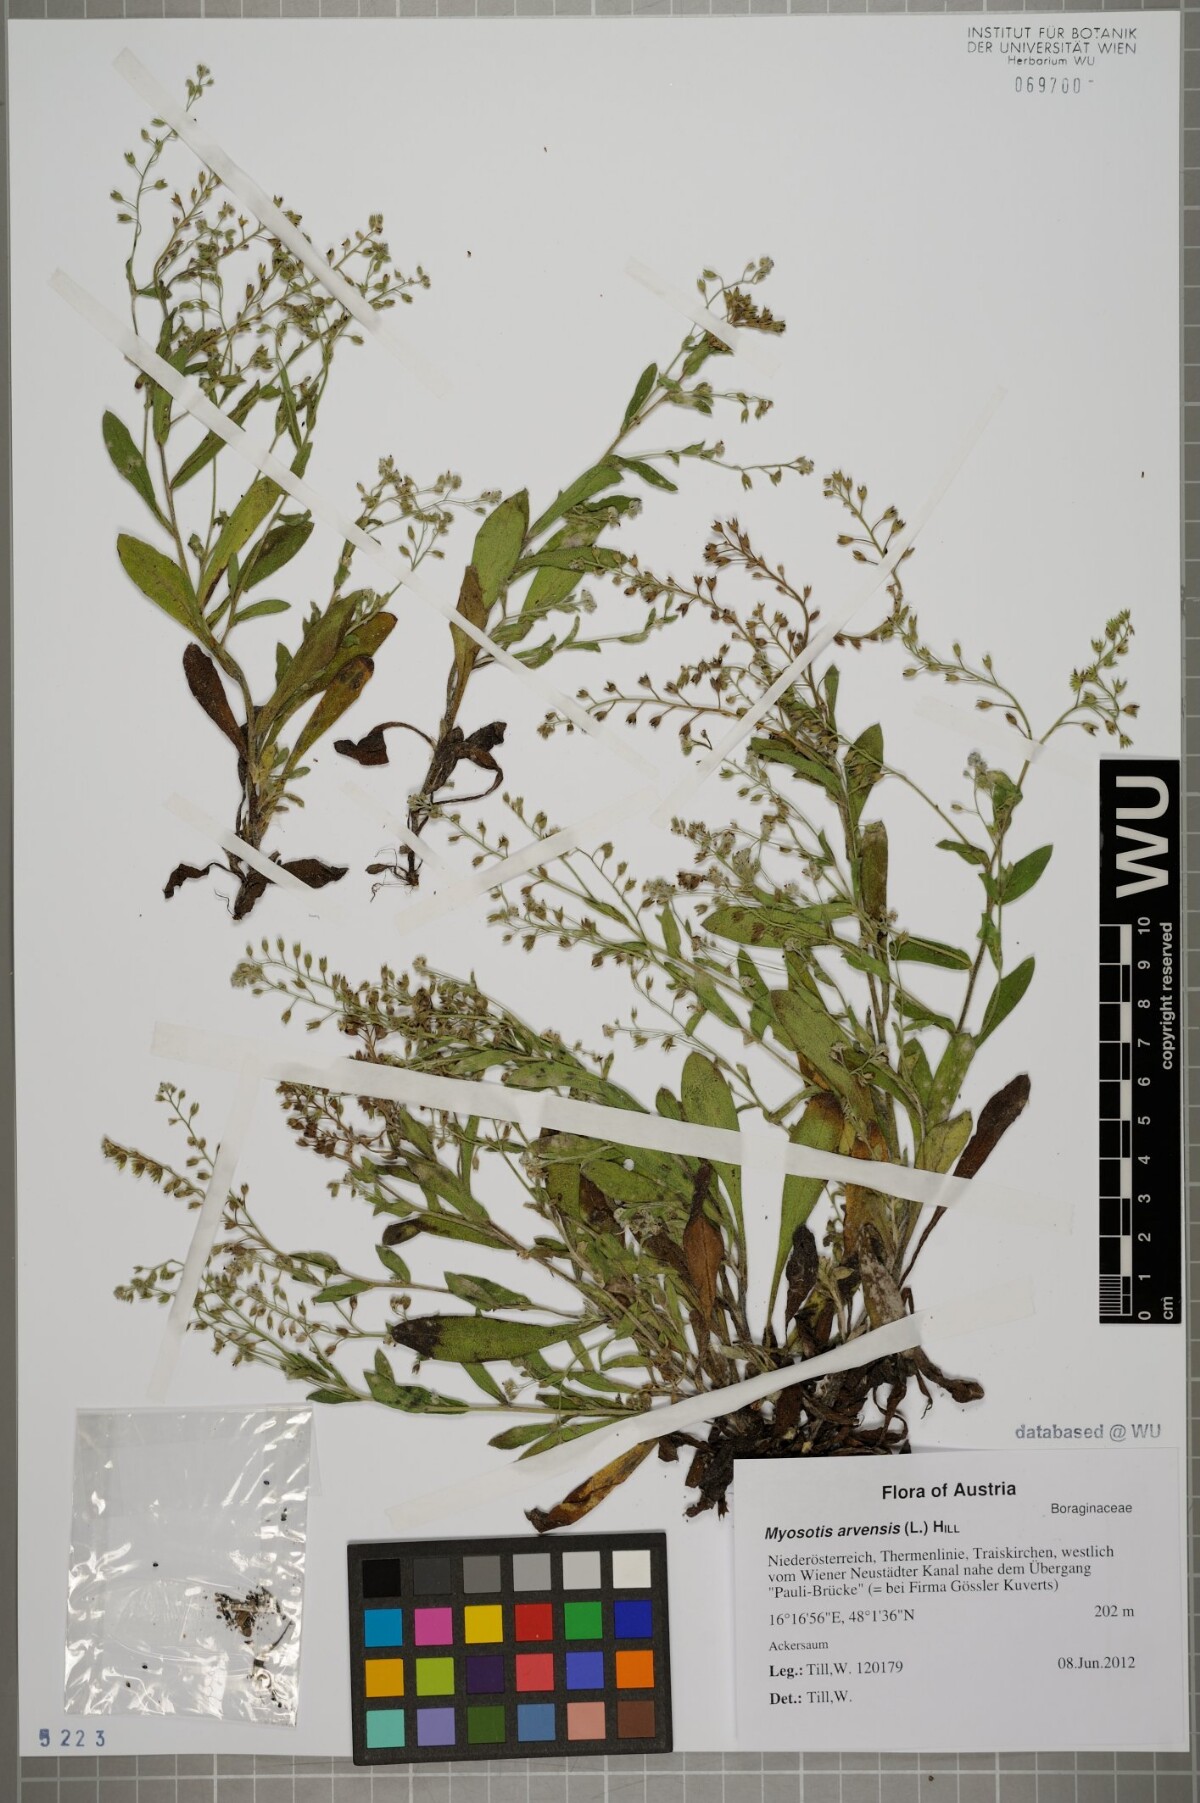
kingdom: Plantae
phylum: Tracheophyta
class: Magnoliopsida
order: Boraginales
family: Boraginaceae
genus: Myosotis
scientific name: Myosotis arvensis
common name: Field forget-me-not
